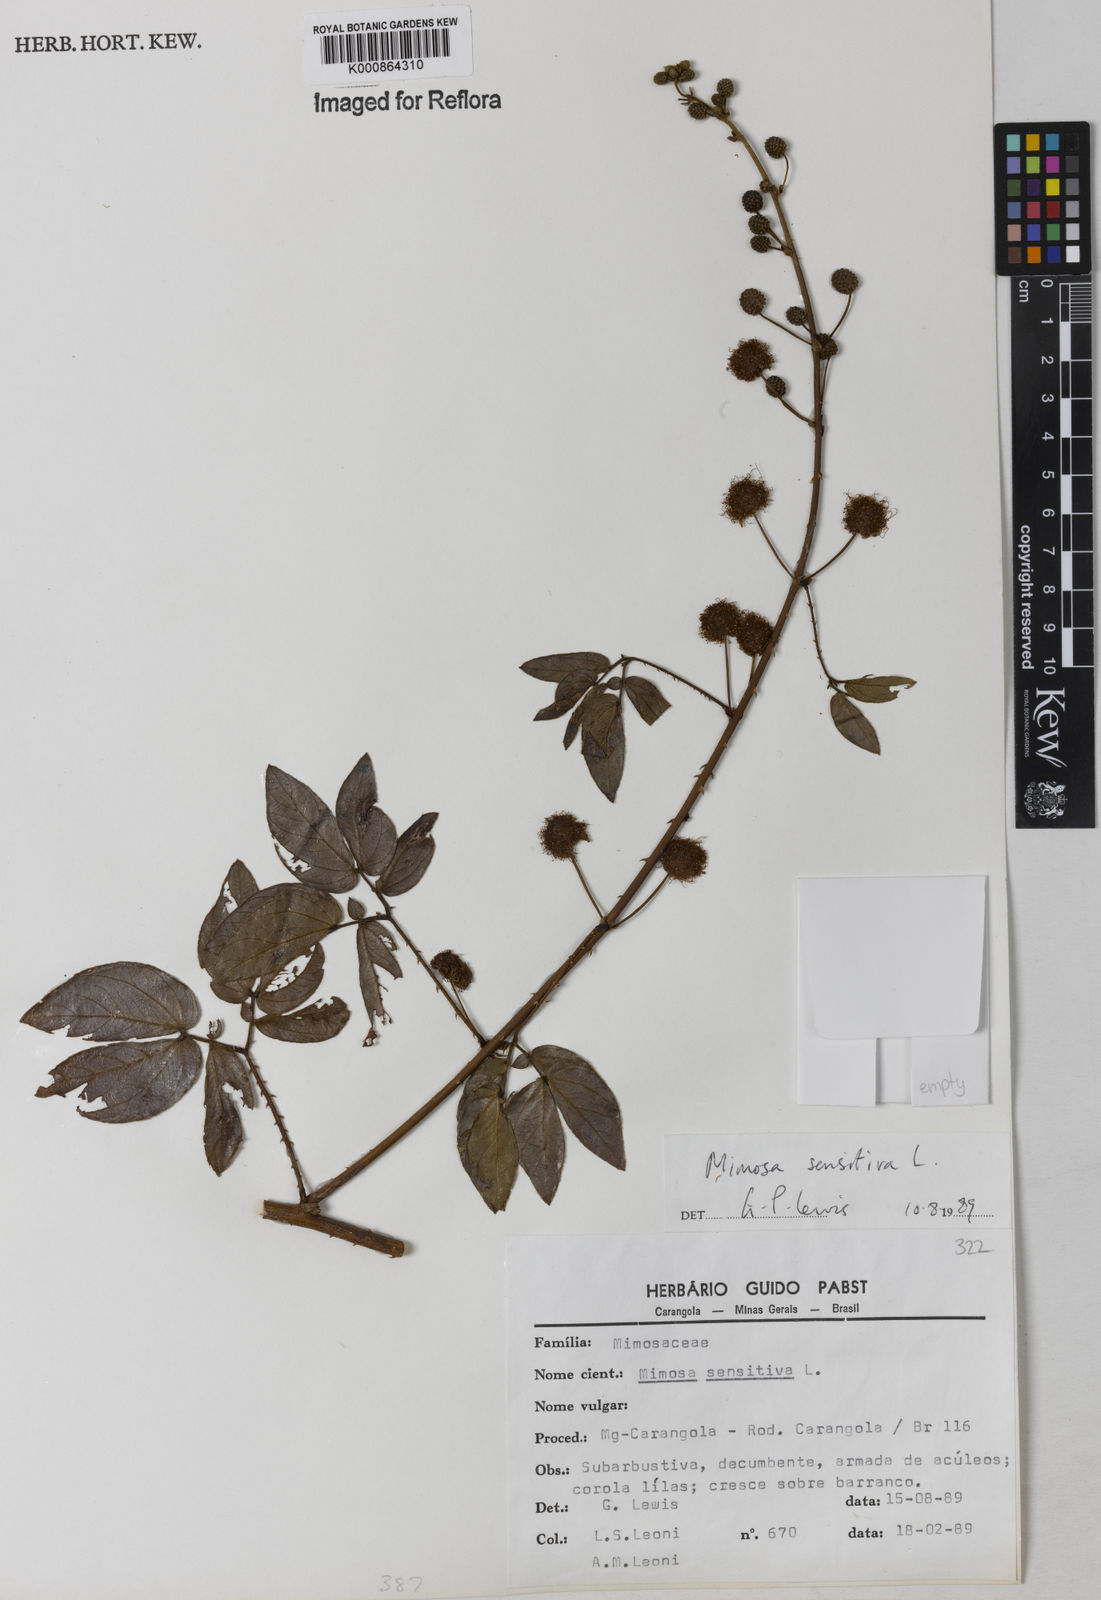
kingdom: Plantae
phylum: Tracheophyta
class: Magnoliopsida
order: Fabales
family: Fabaceae
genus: Mimosa
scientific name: Mimosa sensitiva
